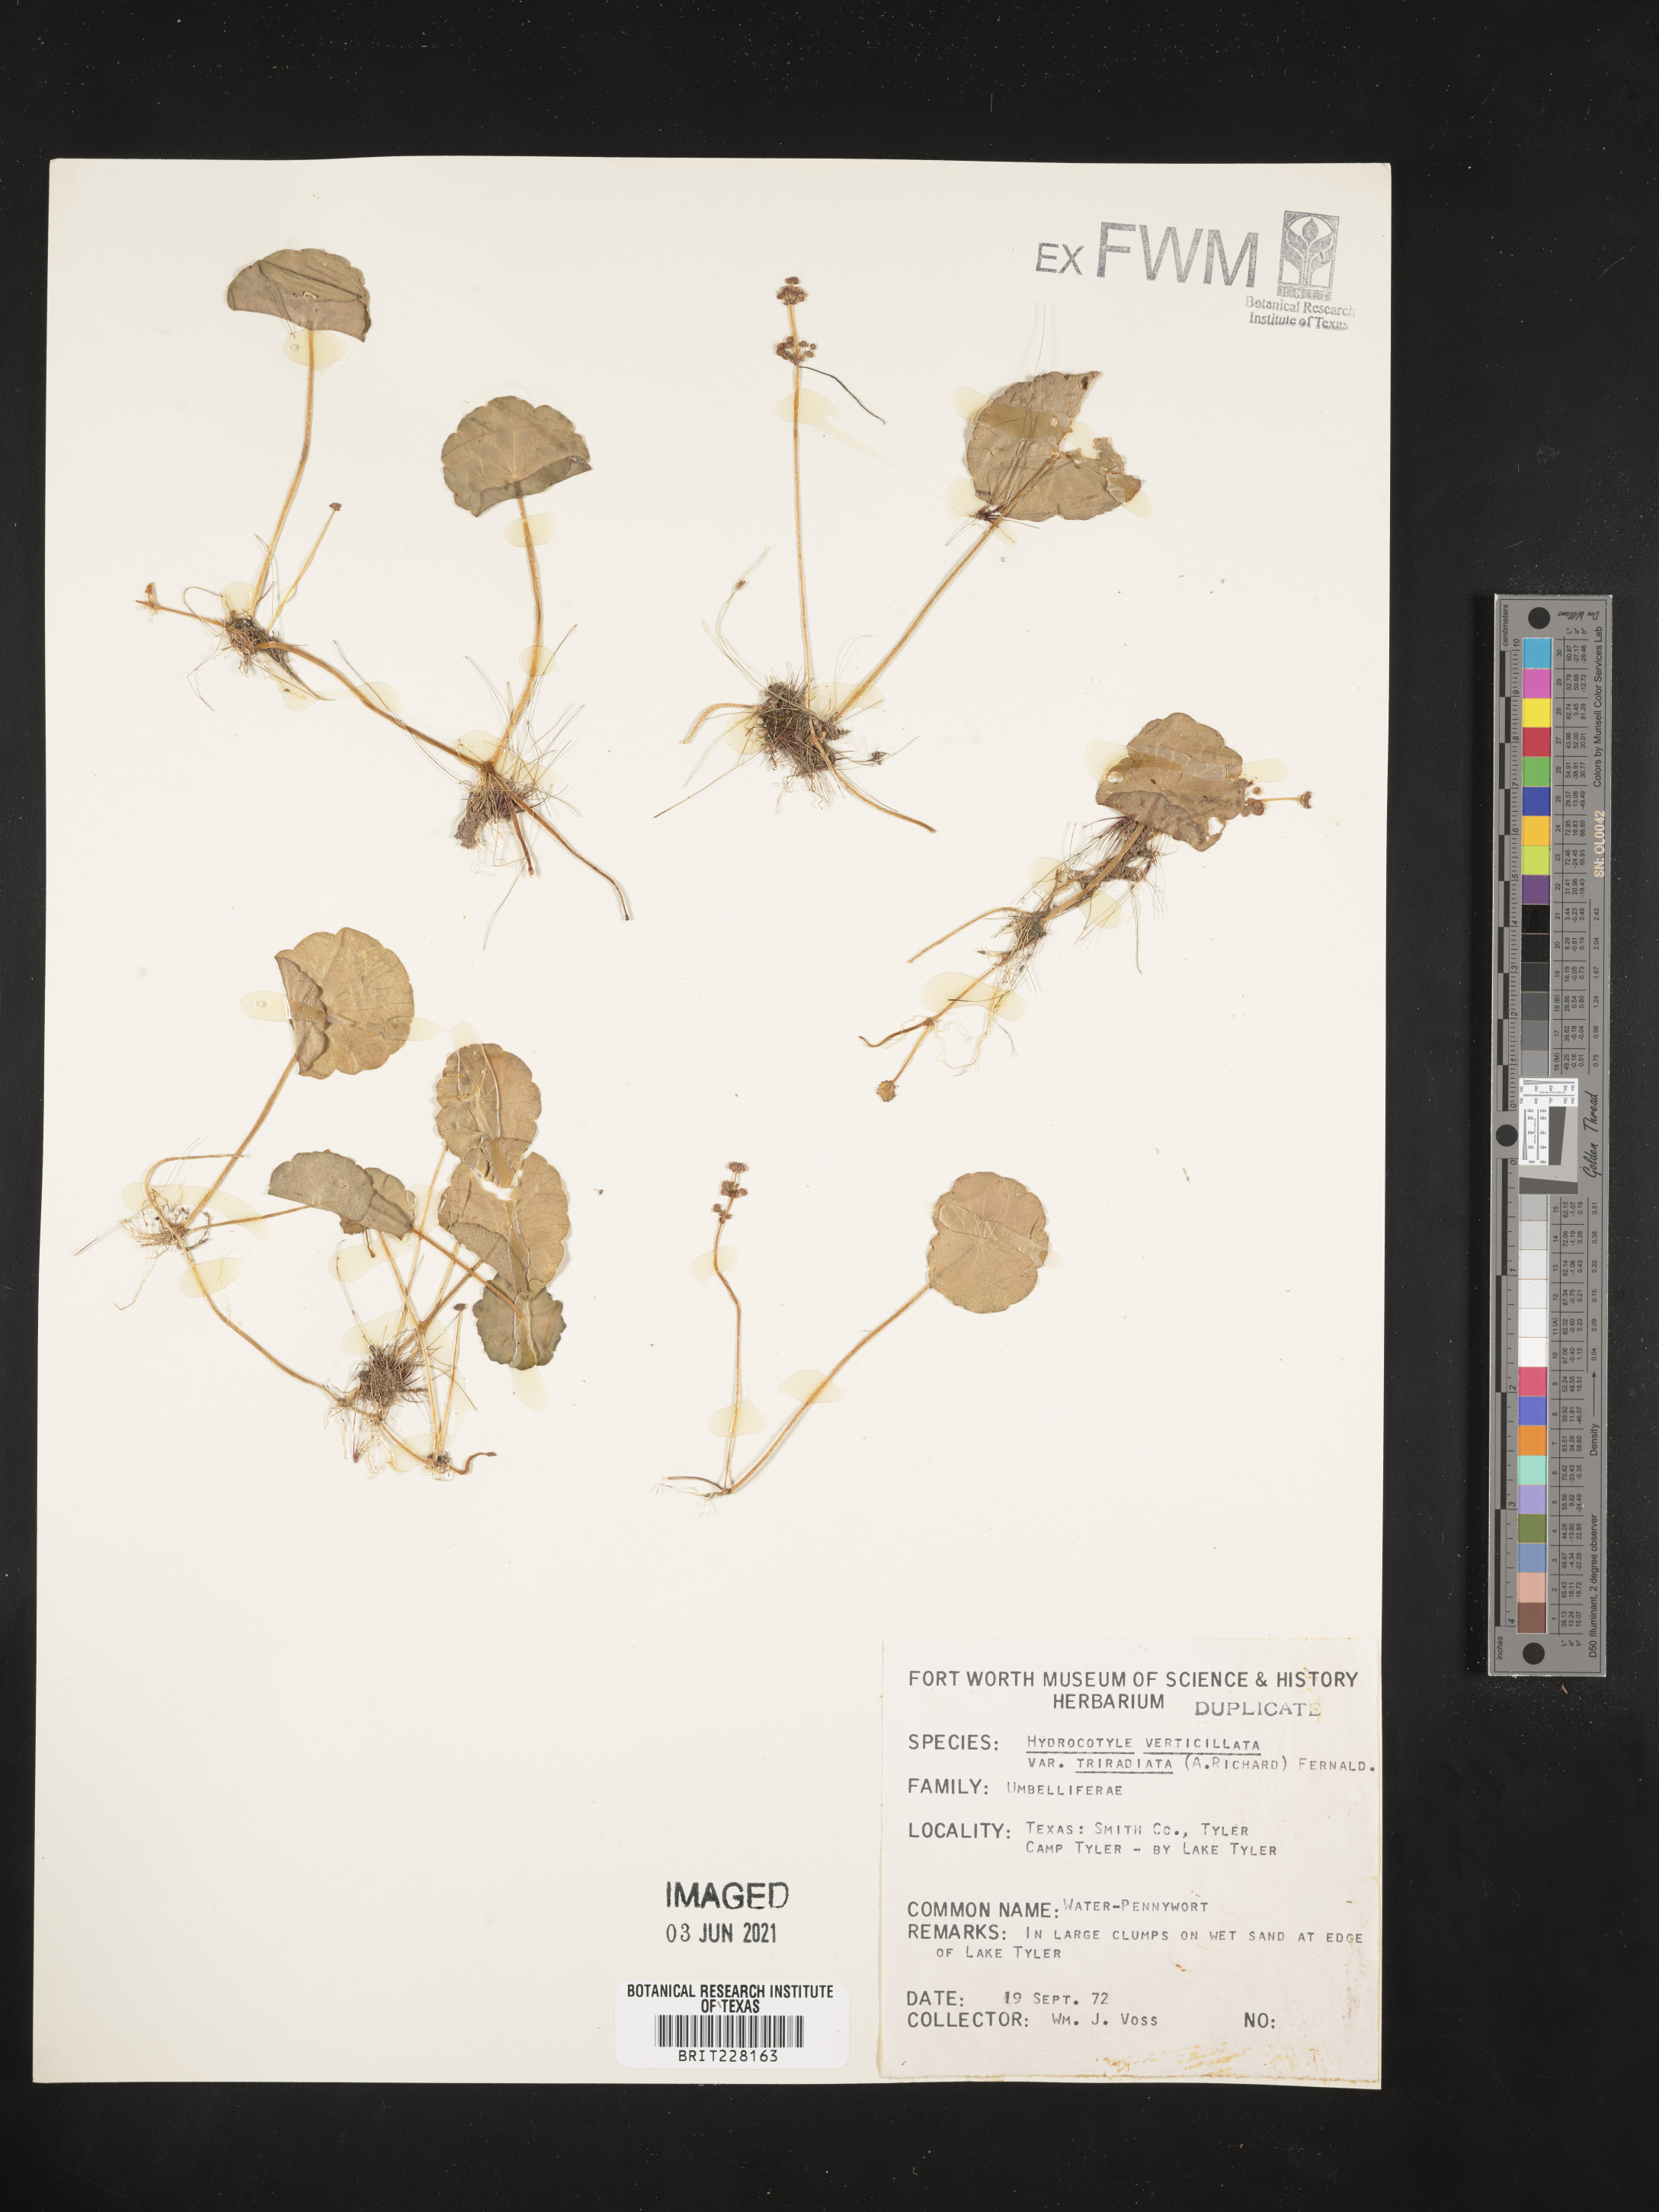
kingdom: Plantae
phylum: Tracheophyta
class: Magnoliopsida
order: Apiales
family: Araliaceae
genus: Hydrocotyle
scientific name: Hydrocotyle bonariensis
